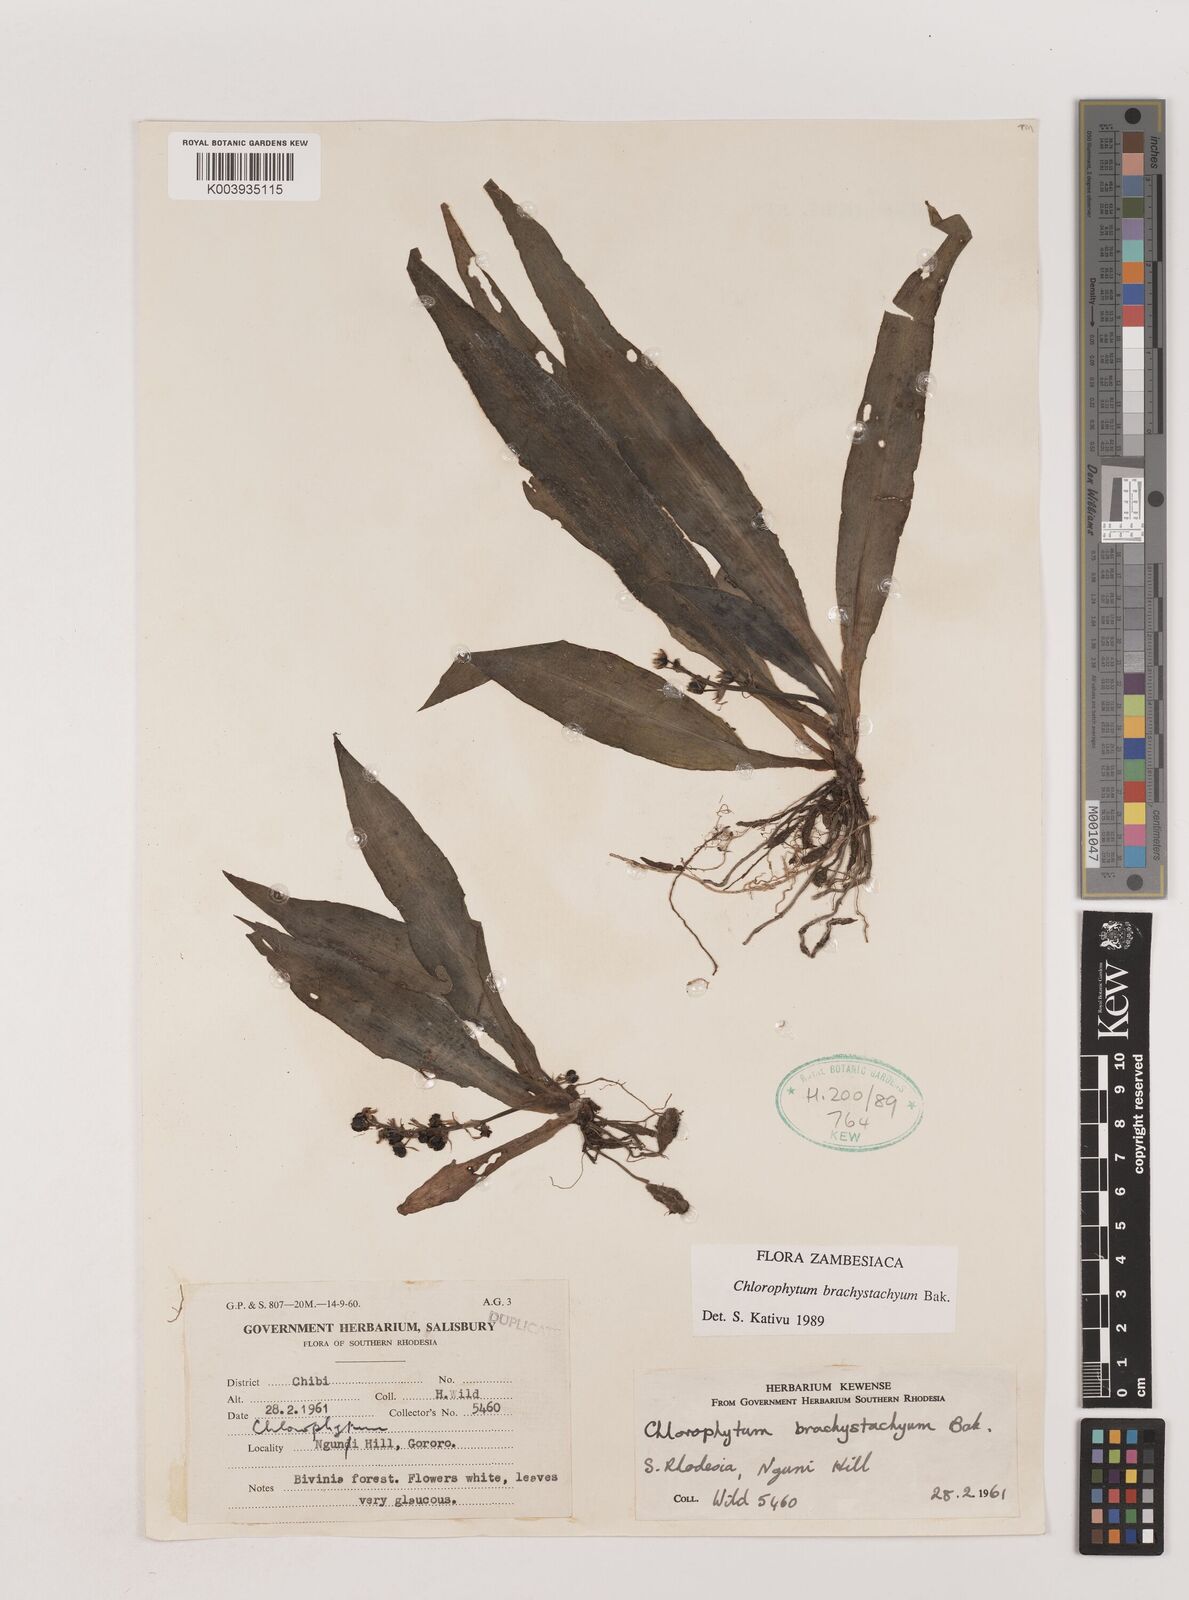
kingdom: Plantae
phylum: Tracheophyta
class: Liliopsida
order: Asparagales
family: Asparagaceae
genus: Chlorophytum
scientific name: Chlorophytum brachystachyum
